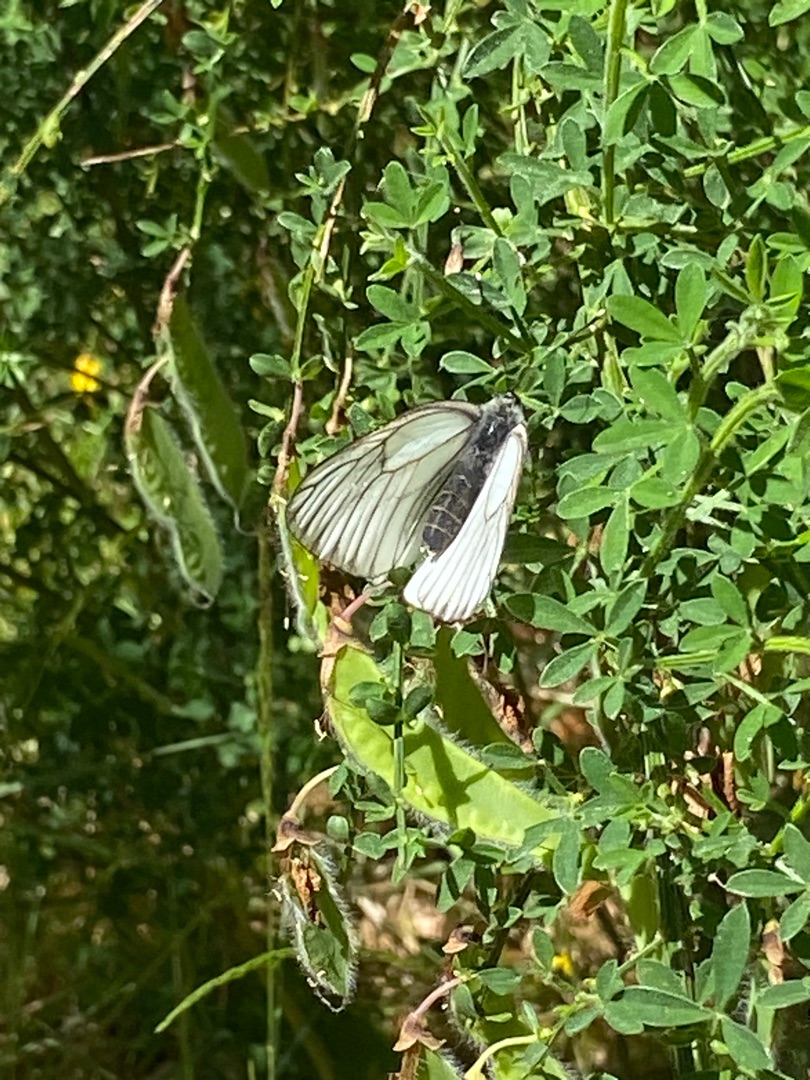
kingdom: Animalia
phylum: Arthropoda
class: Insecta
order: Lepidoptera
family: Pieridae
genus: Aporia
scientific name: Aporia crataegi
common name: Sortåret hvidvinge
